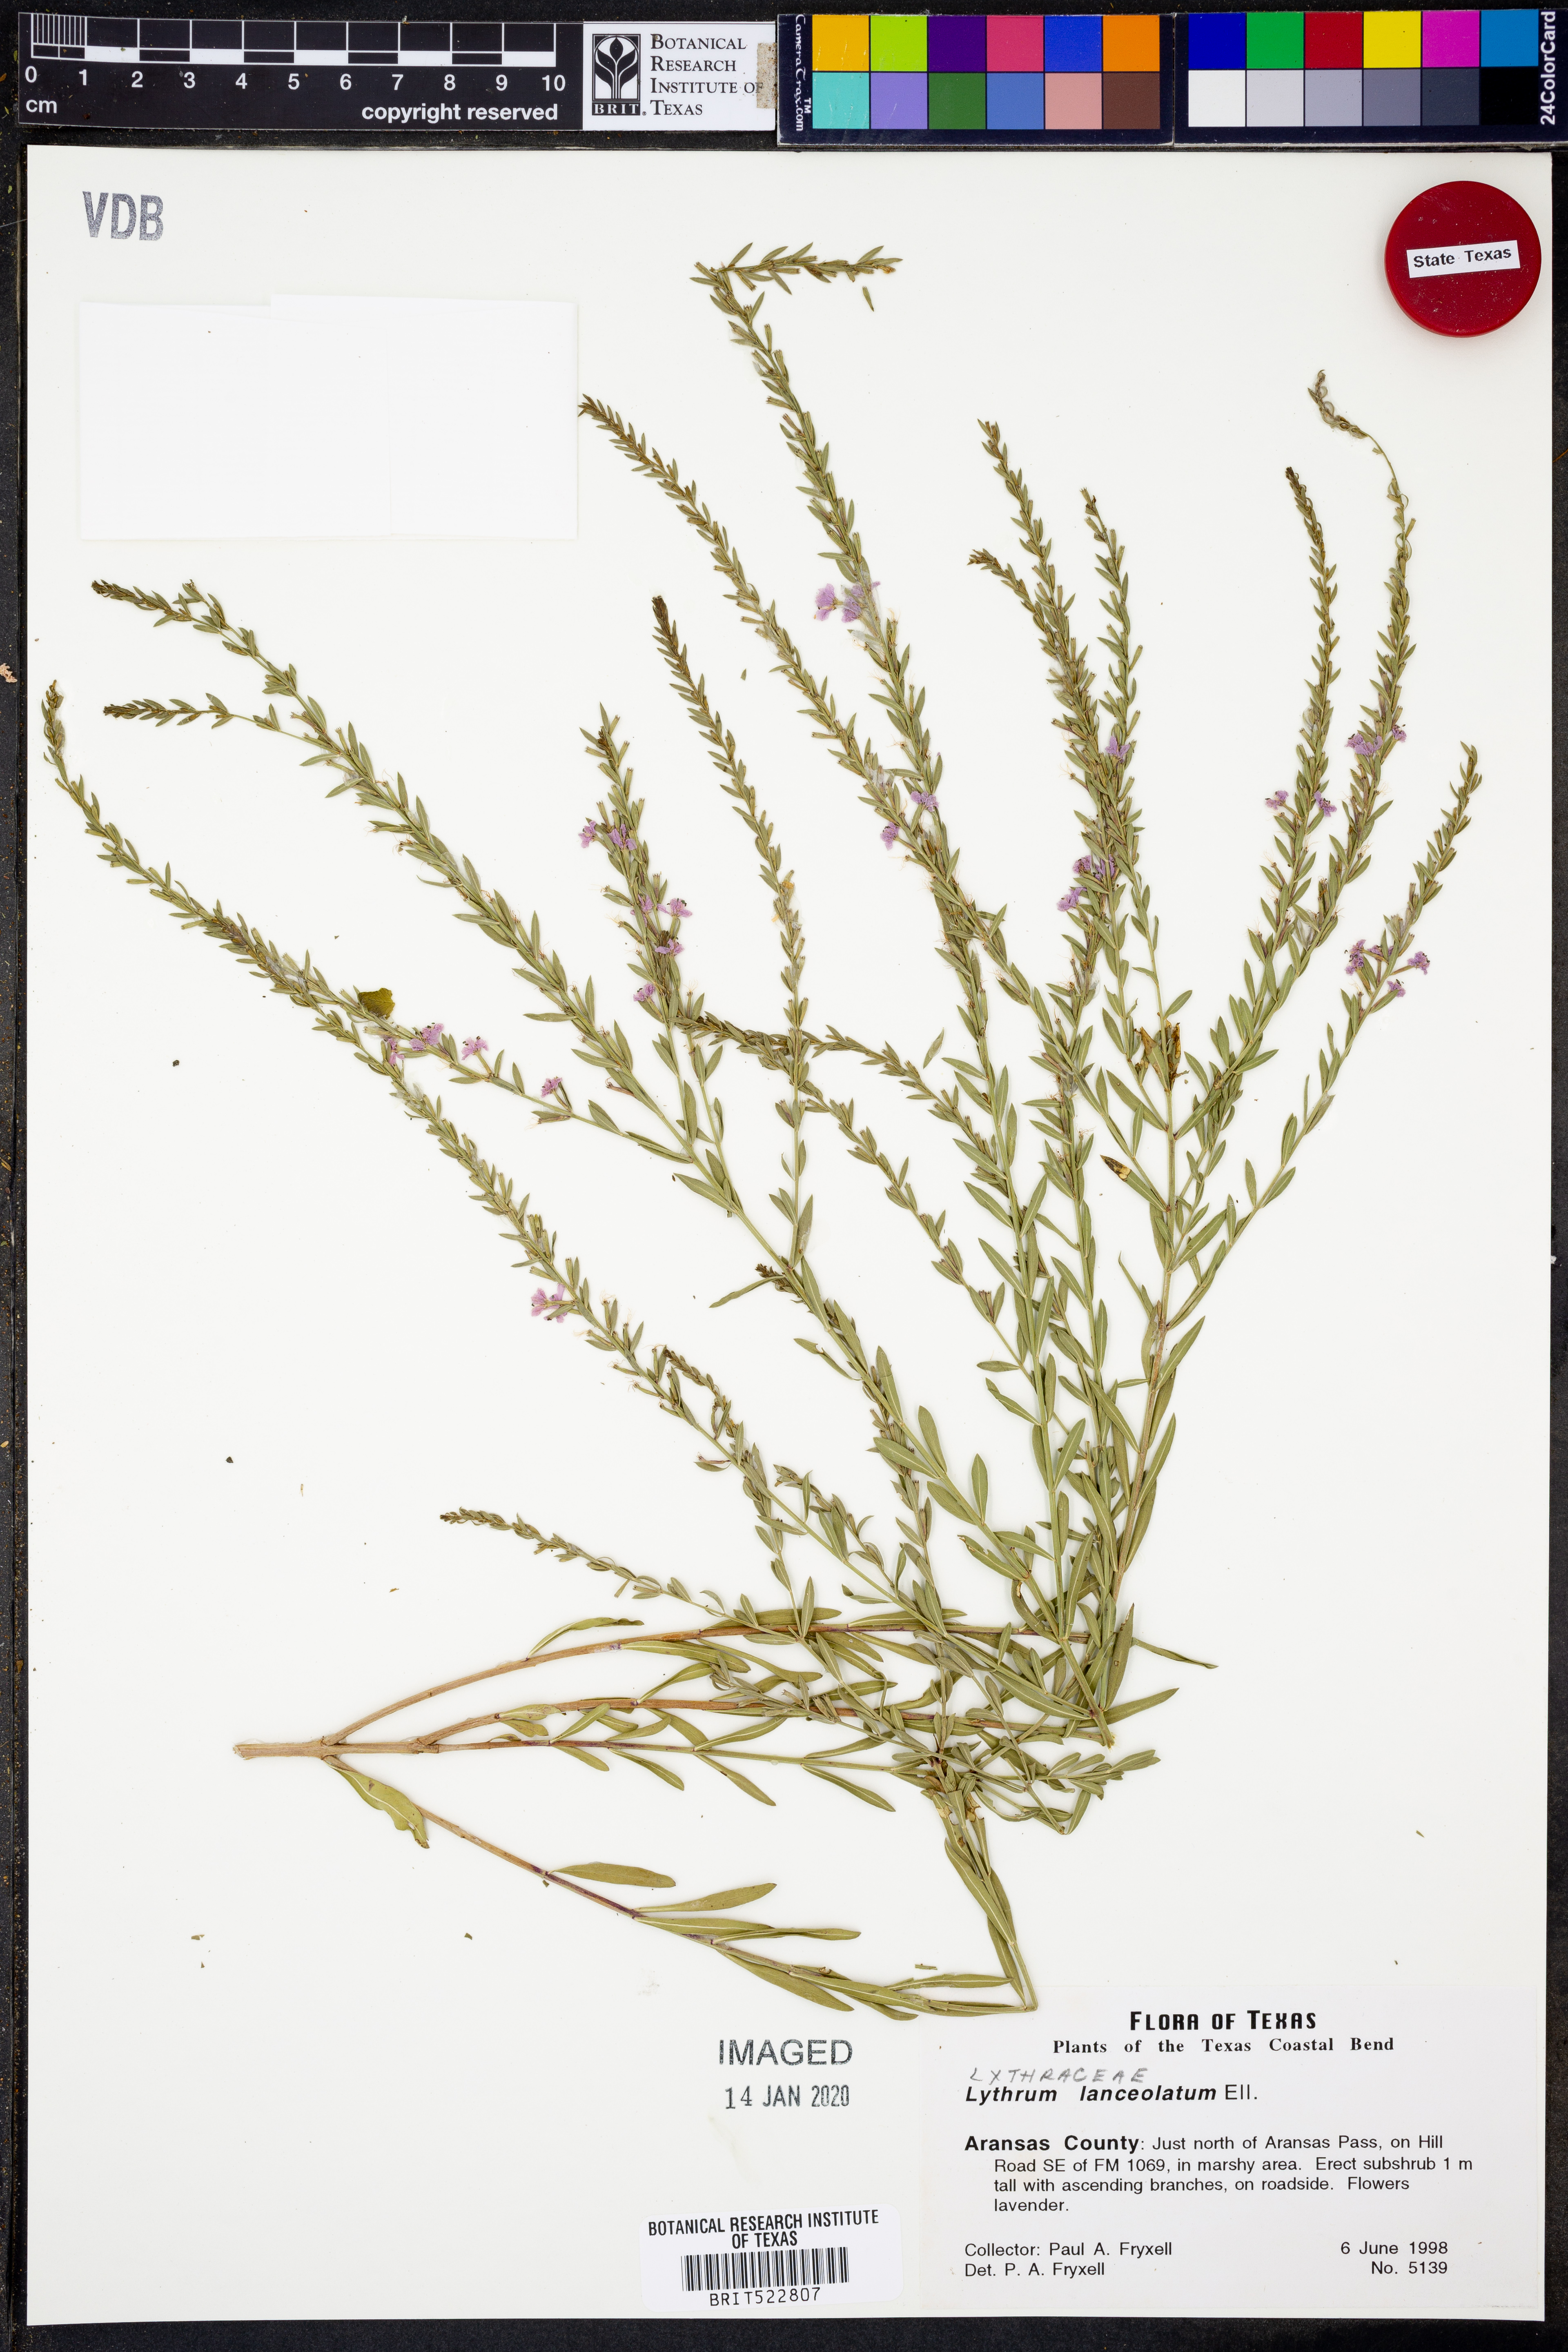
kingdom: Plantae
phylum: Tracheophyta
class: Magnoliopsida
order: Myrtales
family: Lythraceae
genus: Lythrum
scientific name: Lythrum alatum
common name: Winged loosestrife
